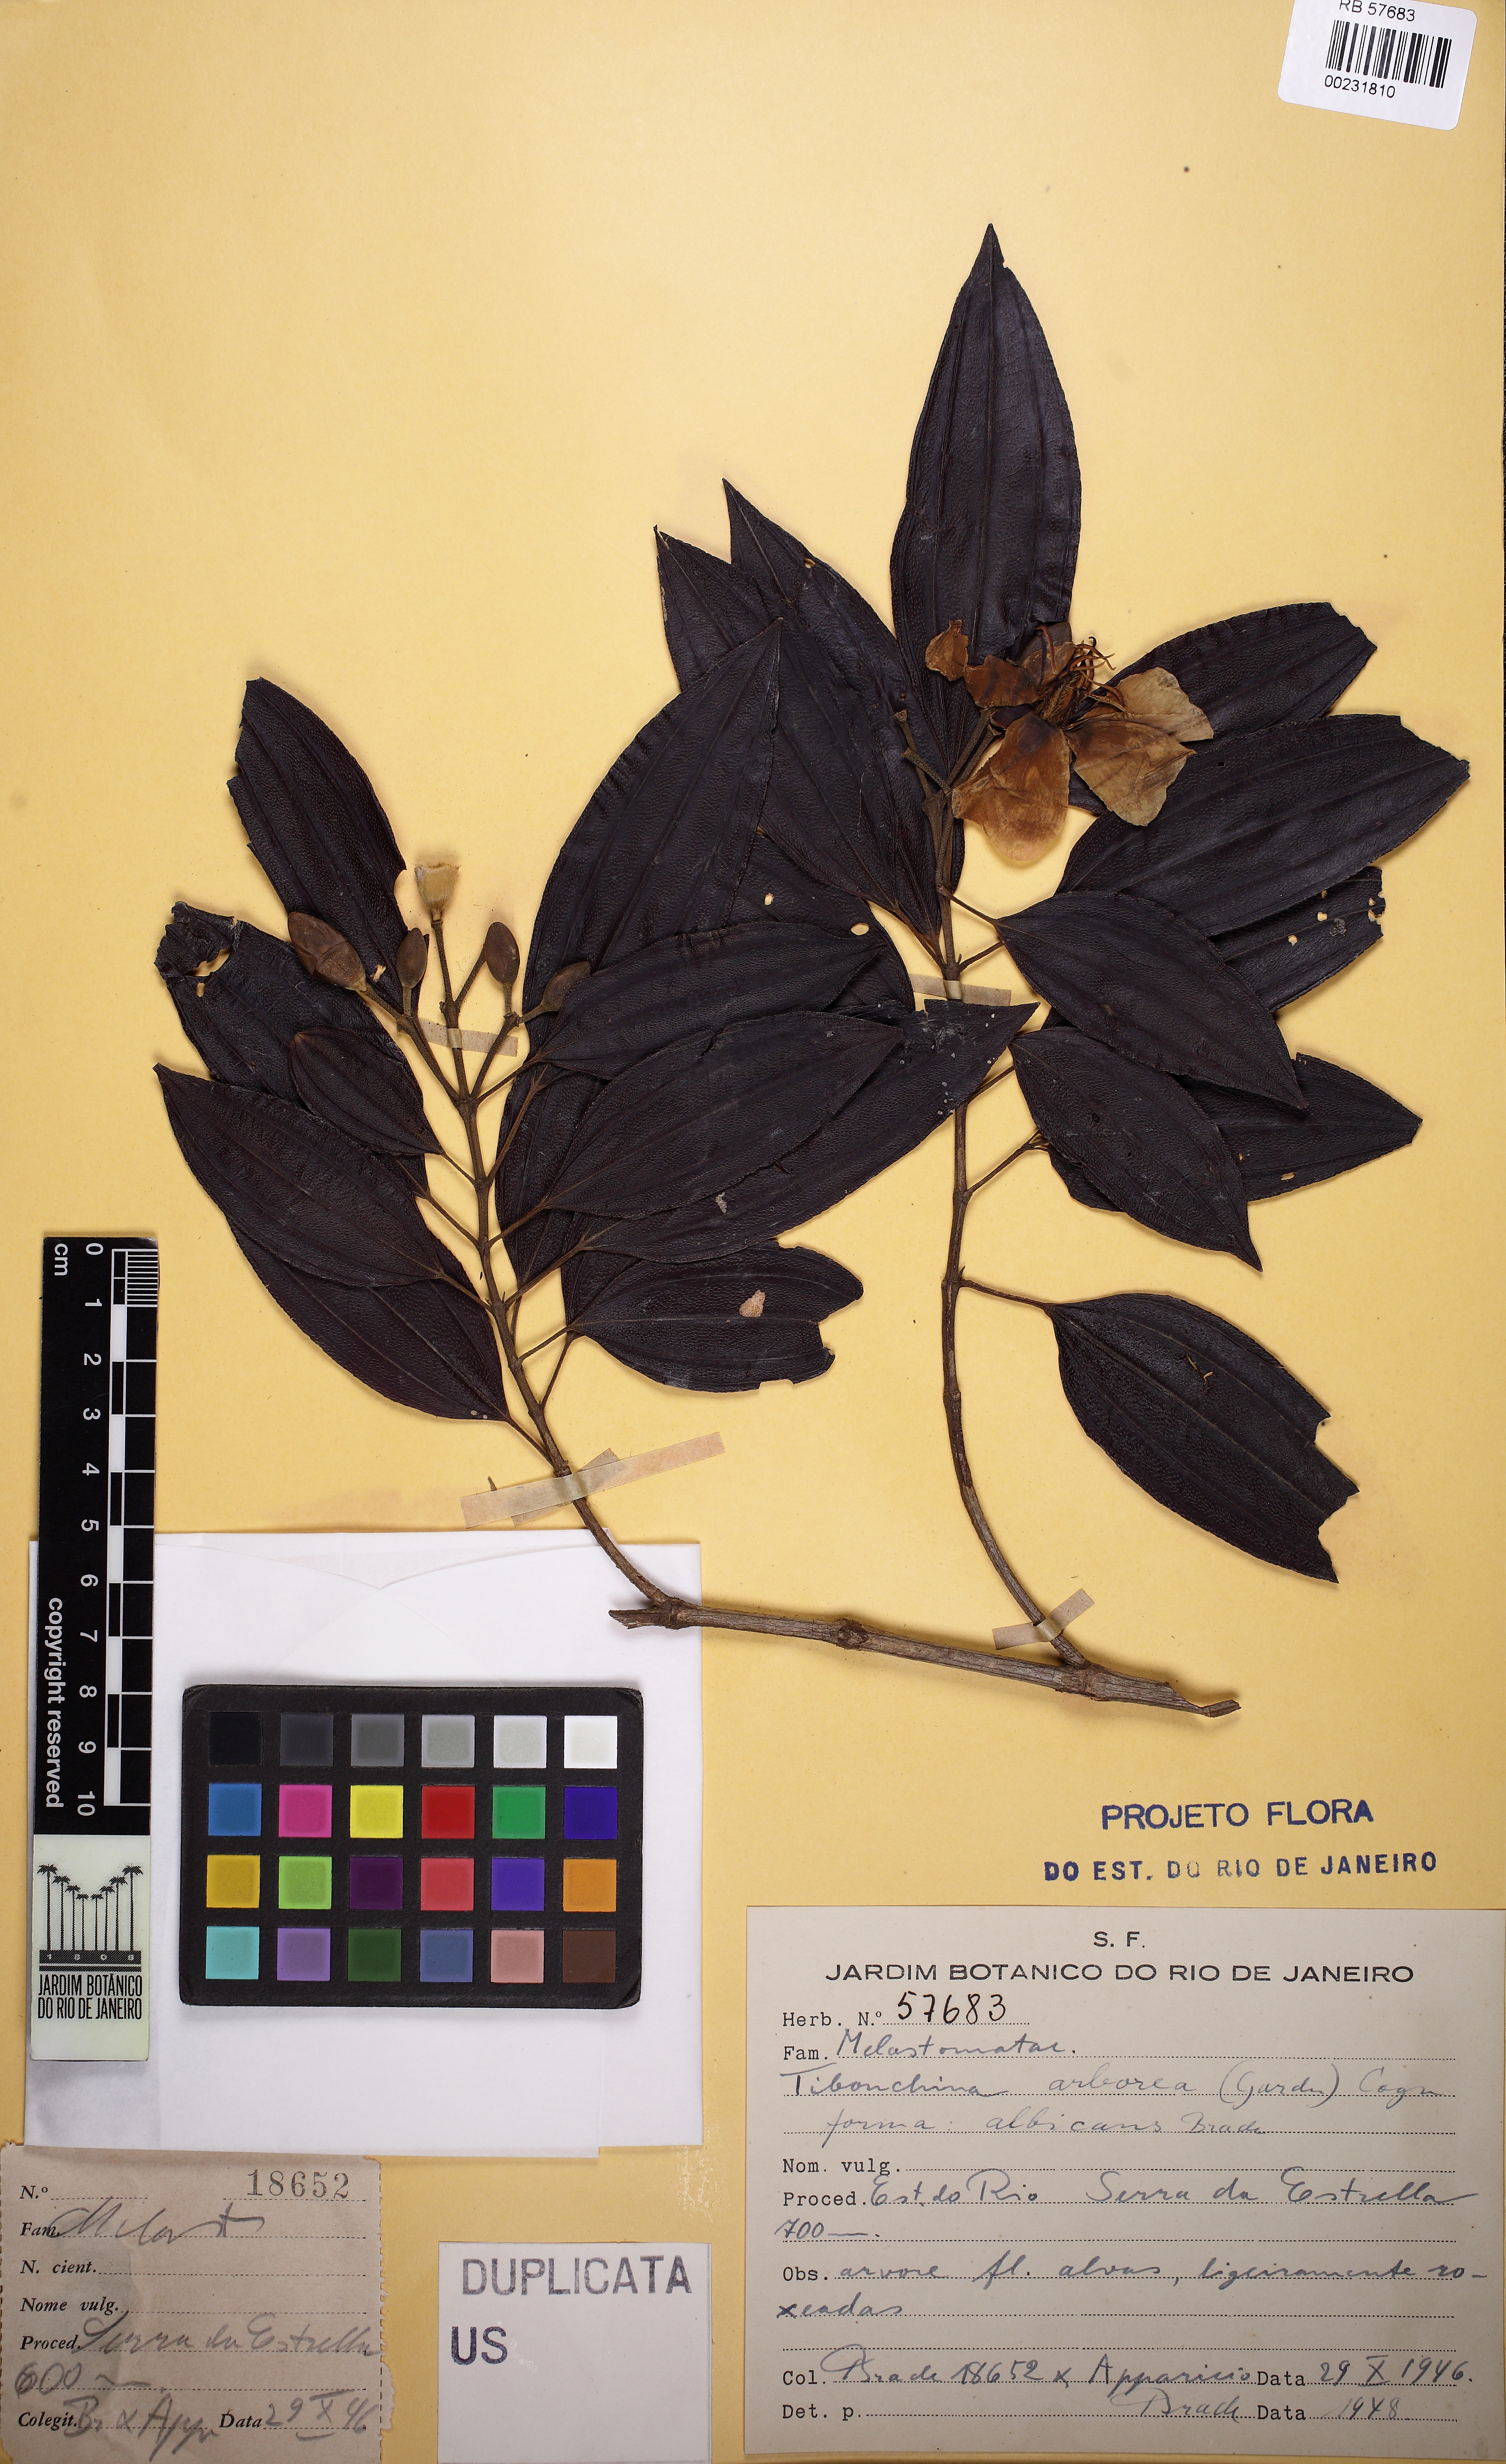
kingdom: Plantae
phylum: Tracheophyta
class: Magnoliopsida
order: Myrtales
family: Melastomataceae
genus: Pleroma
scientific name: Pleroma arboreum
